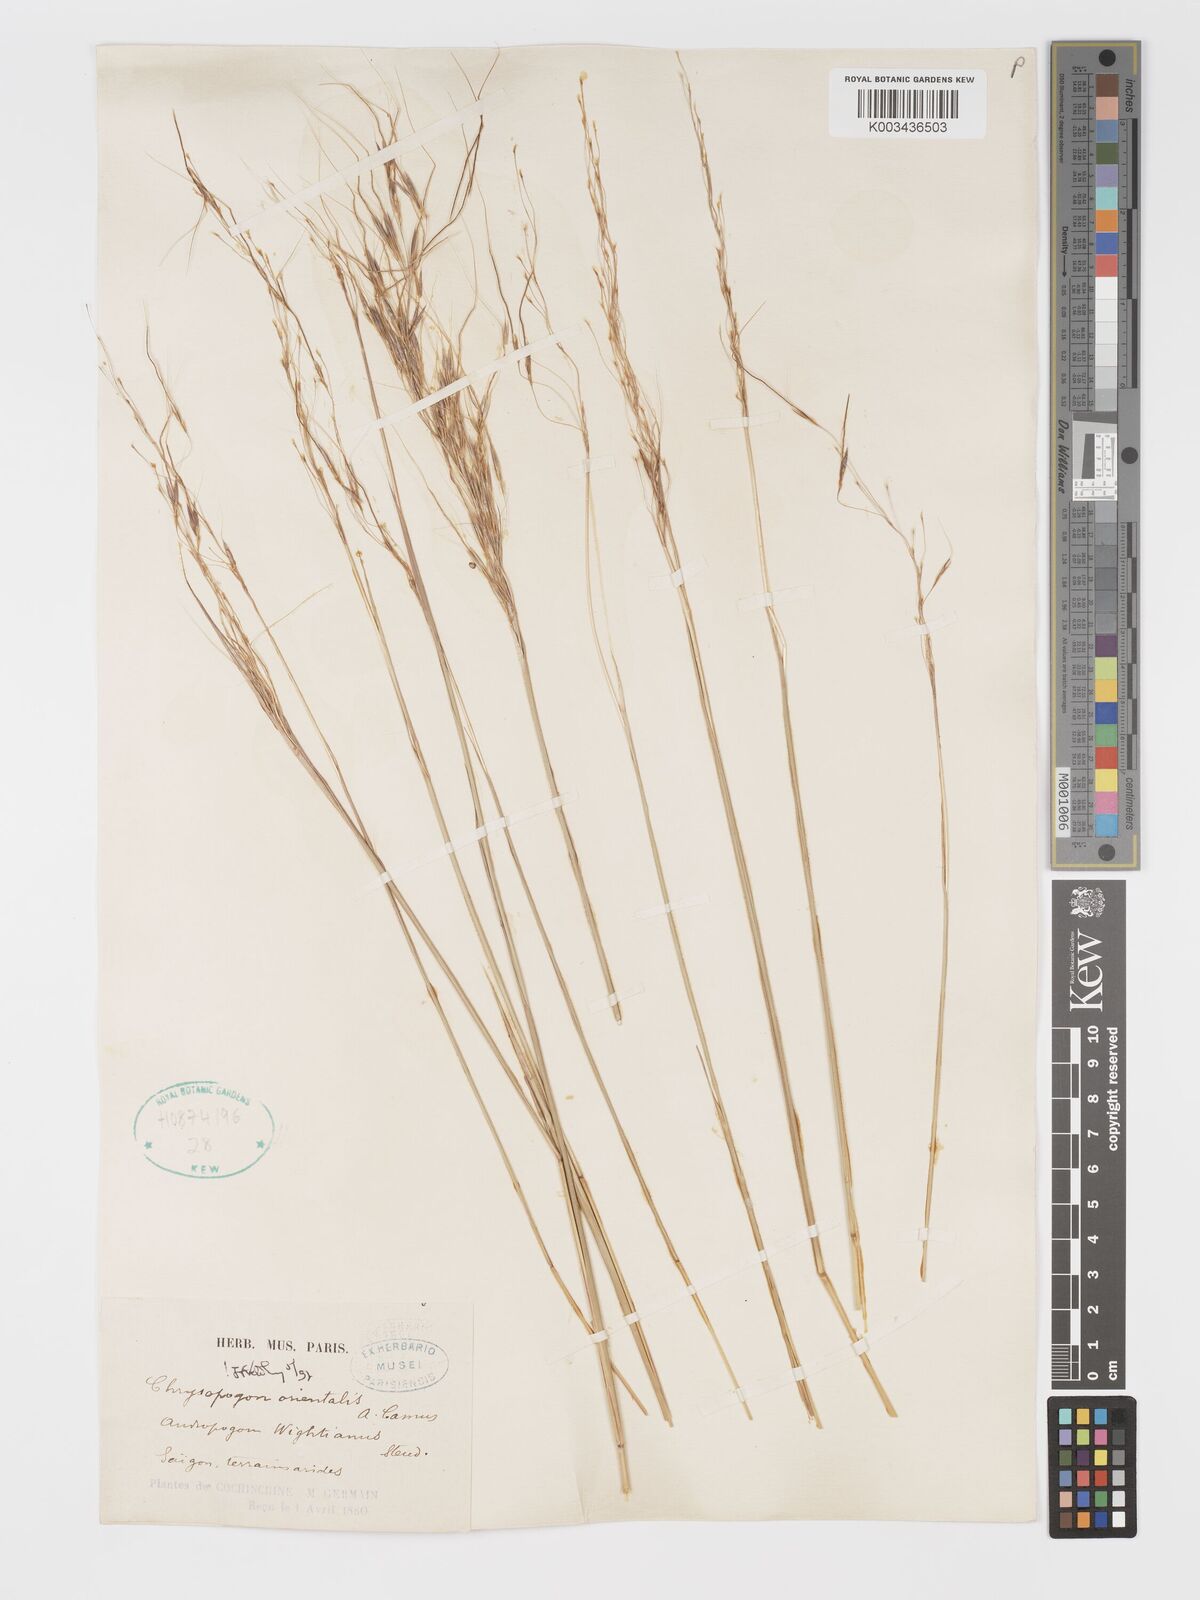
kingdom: Plantae
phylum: Tracheophyta
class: Liliopsida
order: Poales
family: Poaceae
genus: Chrysopogon
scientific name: Chrysopogon orientalis
